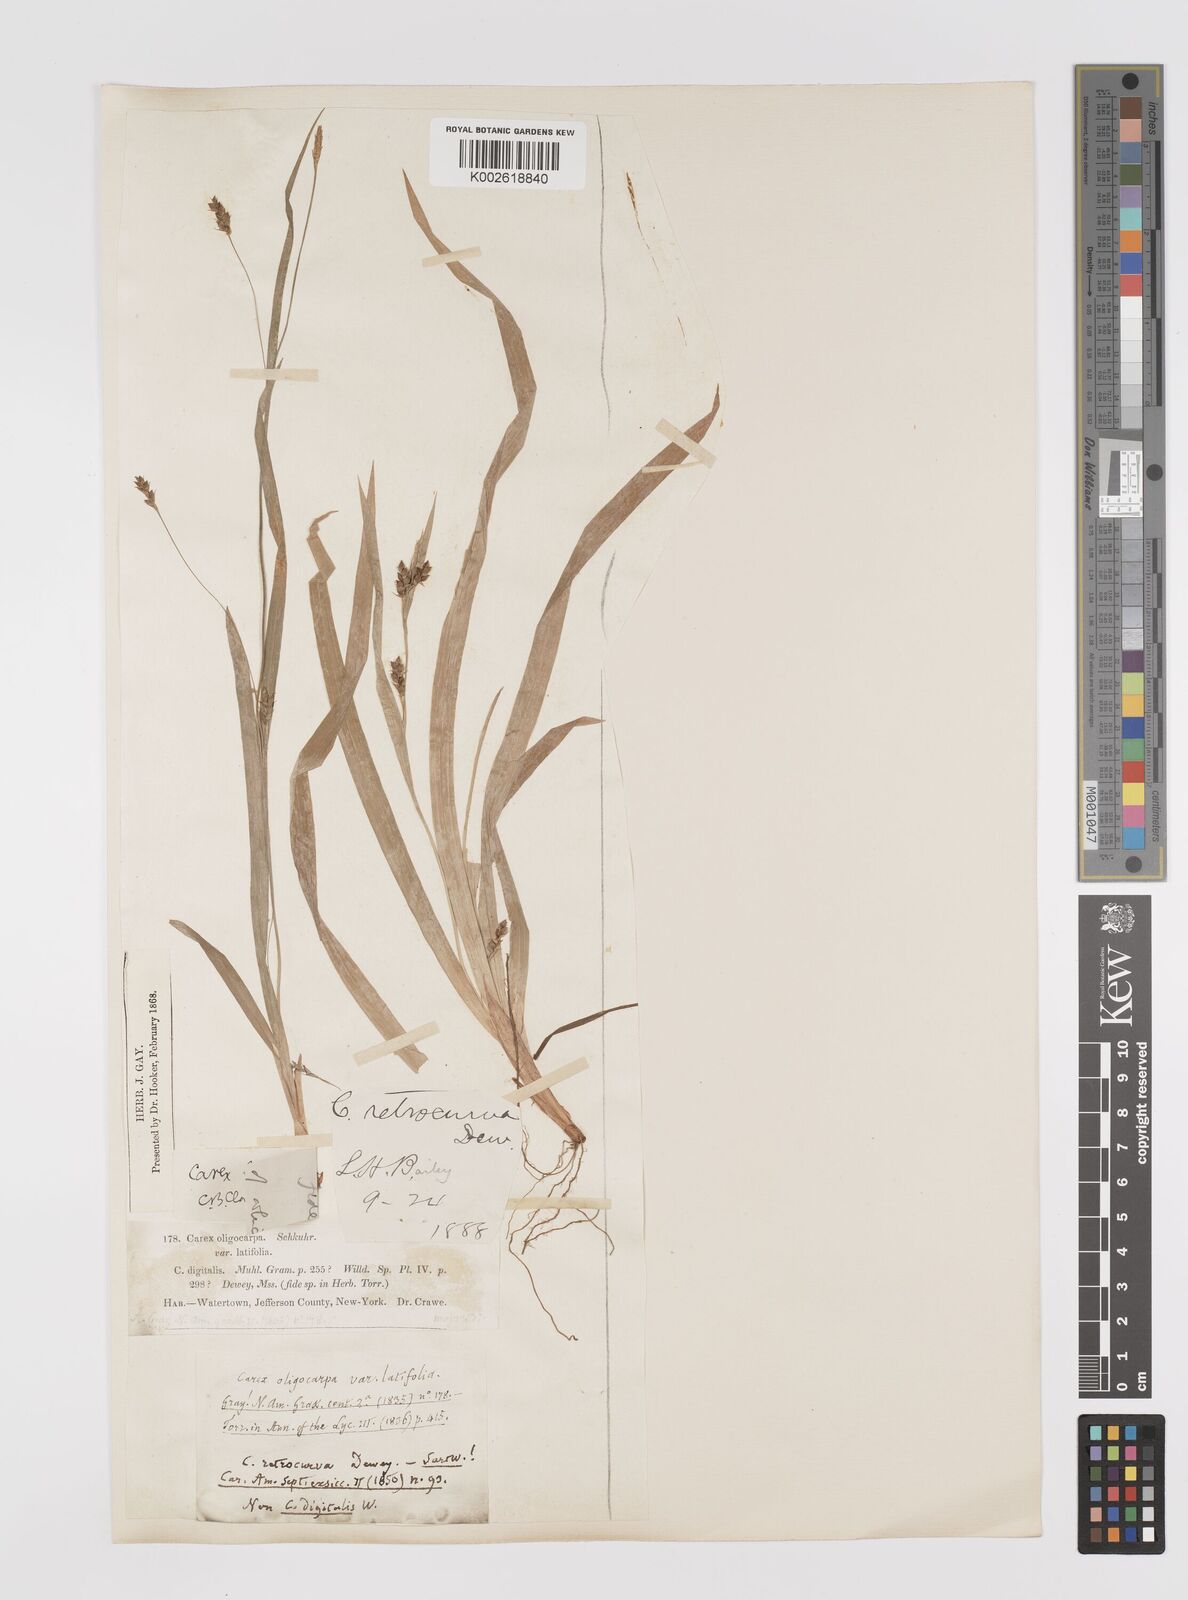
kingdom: Plantae
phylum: Tracheophyta
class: Liliopsida
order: Poales
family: Cyperaceae
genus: Carex
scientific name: Carex laxiculmis
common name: Spreading sedge
